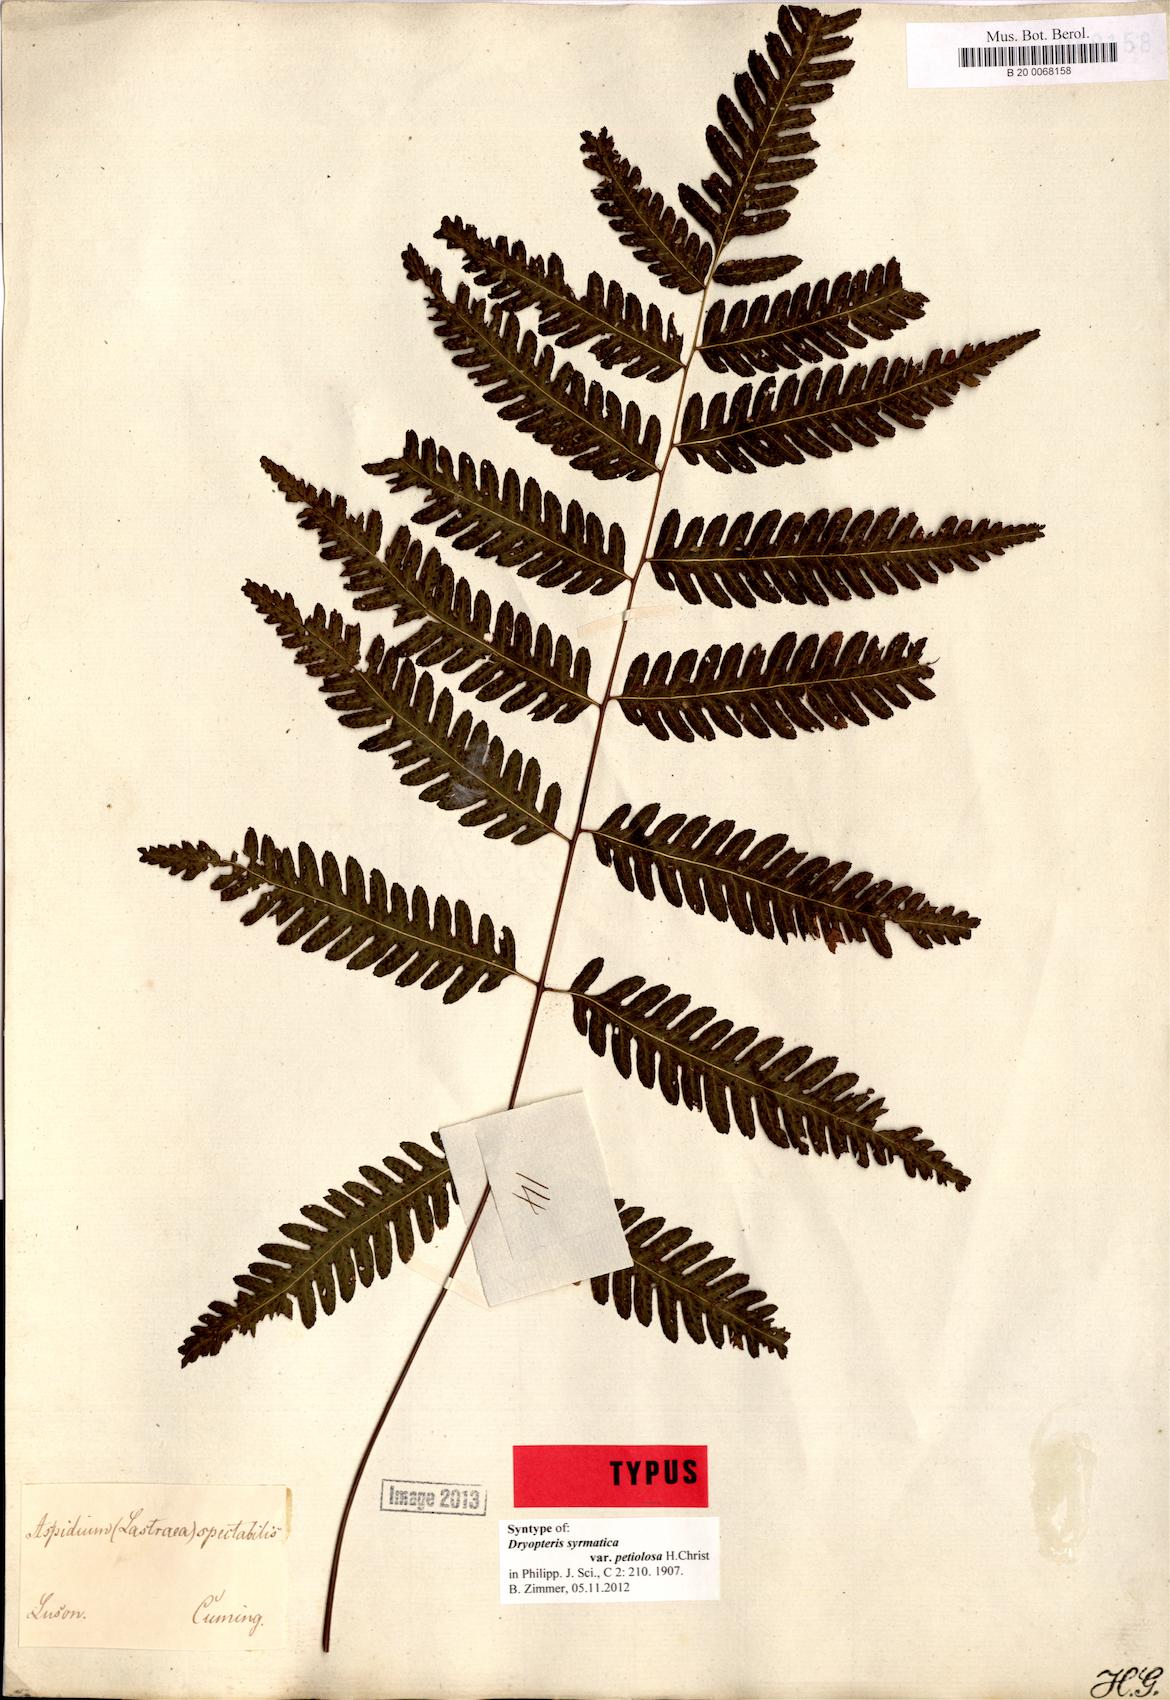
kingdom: Plantae
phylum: Tracheophyta
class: Polypodiopsida
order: Polypodiales
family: Tectariaceae
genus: Pteridrys
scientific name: Pteridrys syrmatica
